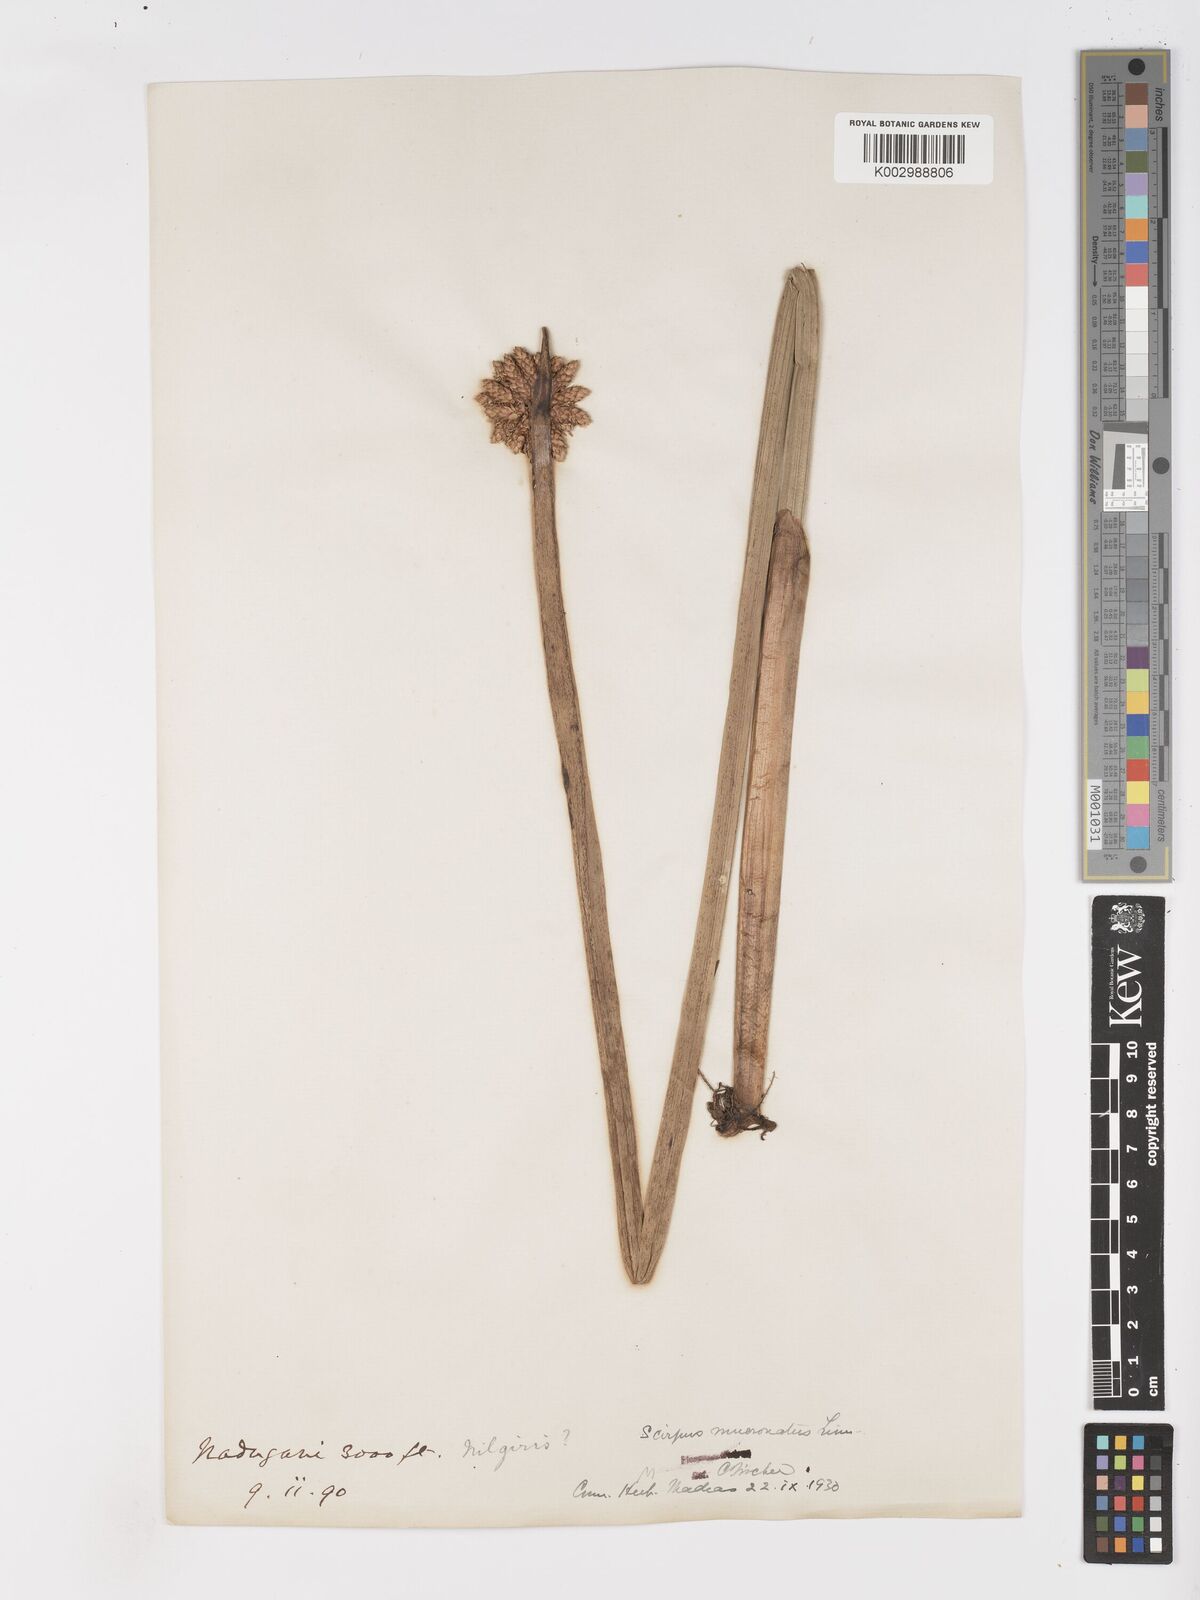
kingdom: Plantae
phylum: Tracheophyta
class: Liliopsida
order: Poales
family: Cyperaceae
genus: Schoenoplectiella
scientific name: Schoenoplectiella mucronata
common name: Bog bulrush
